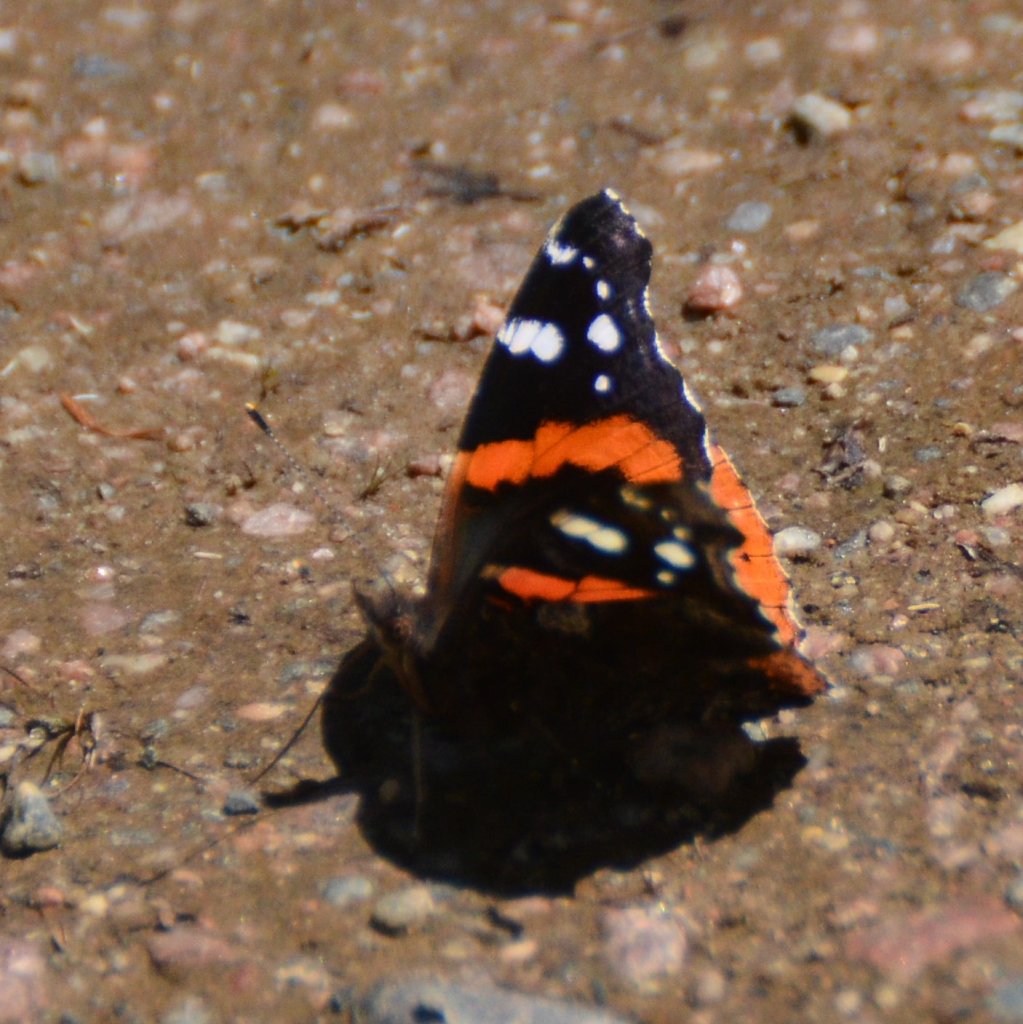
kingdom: Animalia
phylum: Arthropoda
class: Insecta
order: Lepidoptera
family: Nymphalidae
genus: Vanessa
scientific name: Vanessa atalanta
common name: Red Admiral
